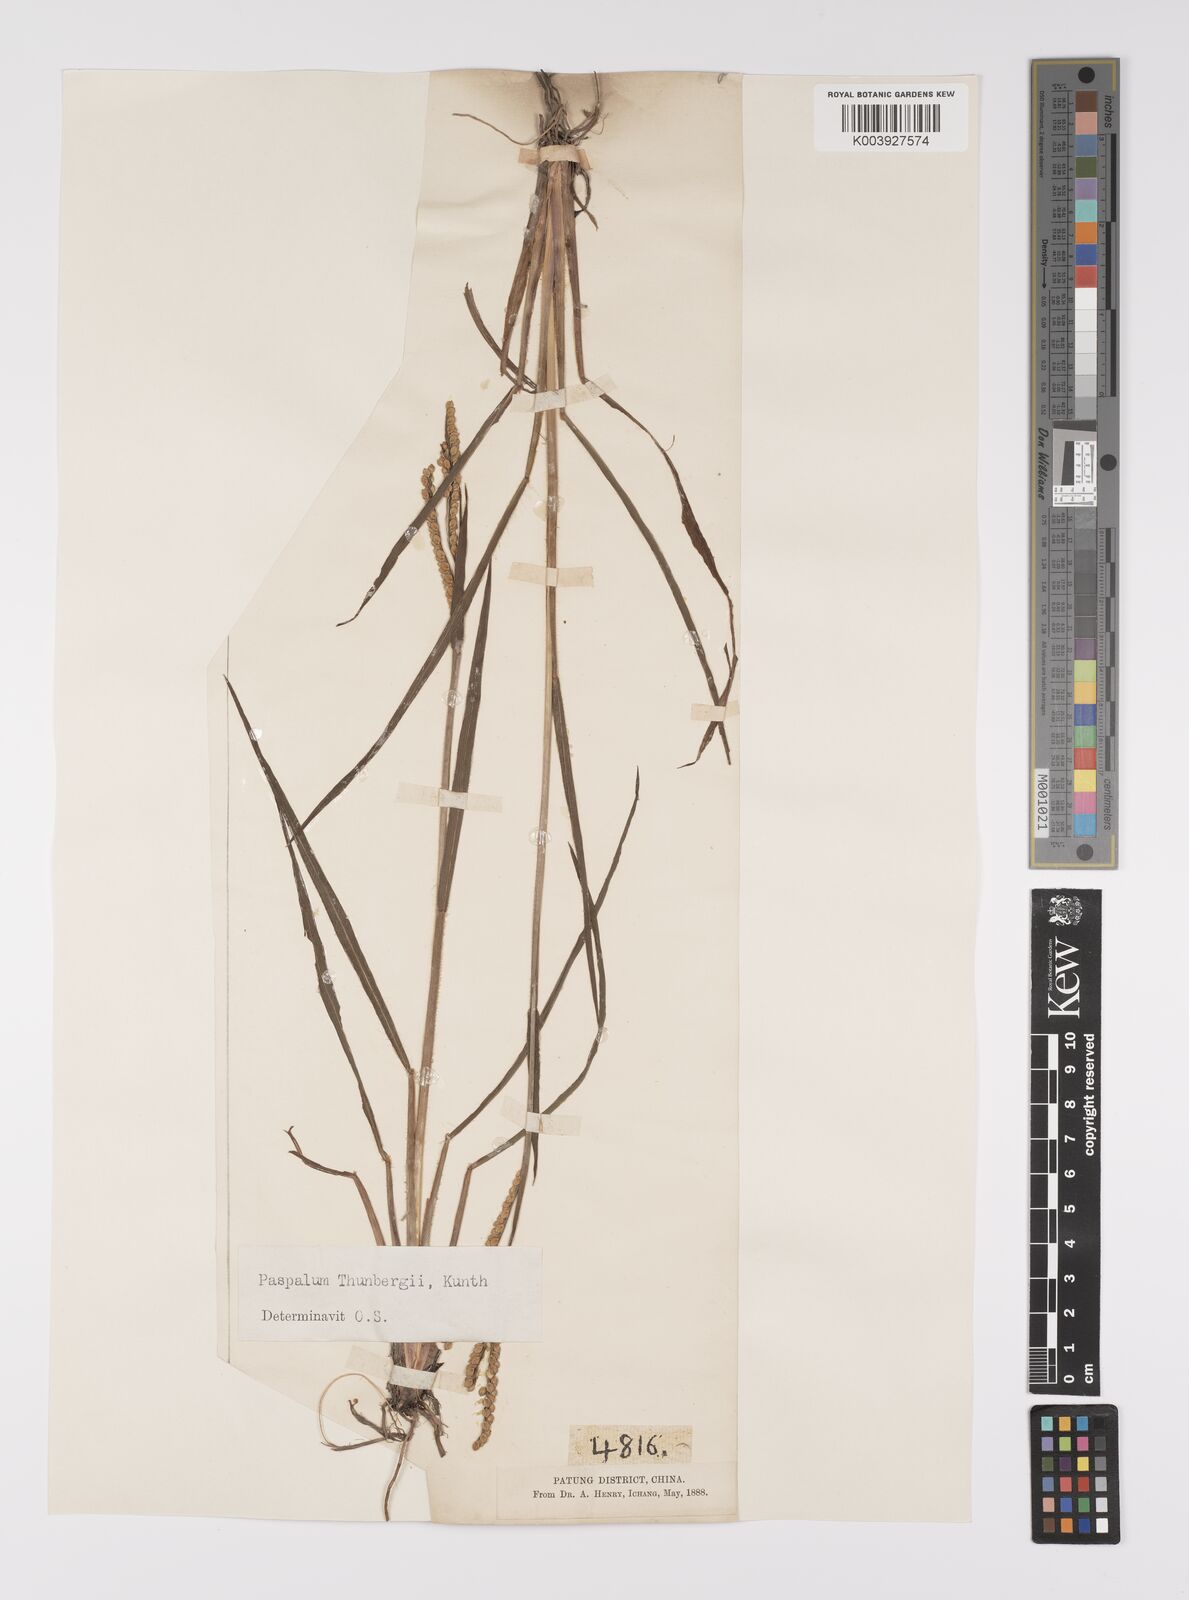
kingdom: Plantae
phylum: Tracheophyta
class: Liliopsida
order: Poales
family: Poaceae
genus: Paspalum
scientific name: Paspalum thunbergii
